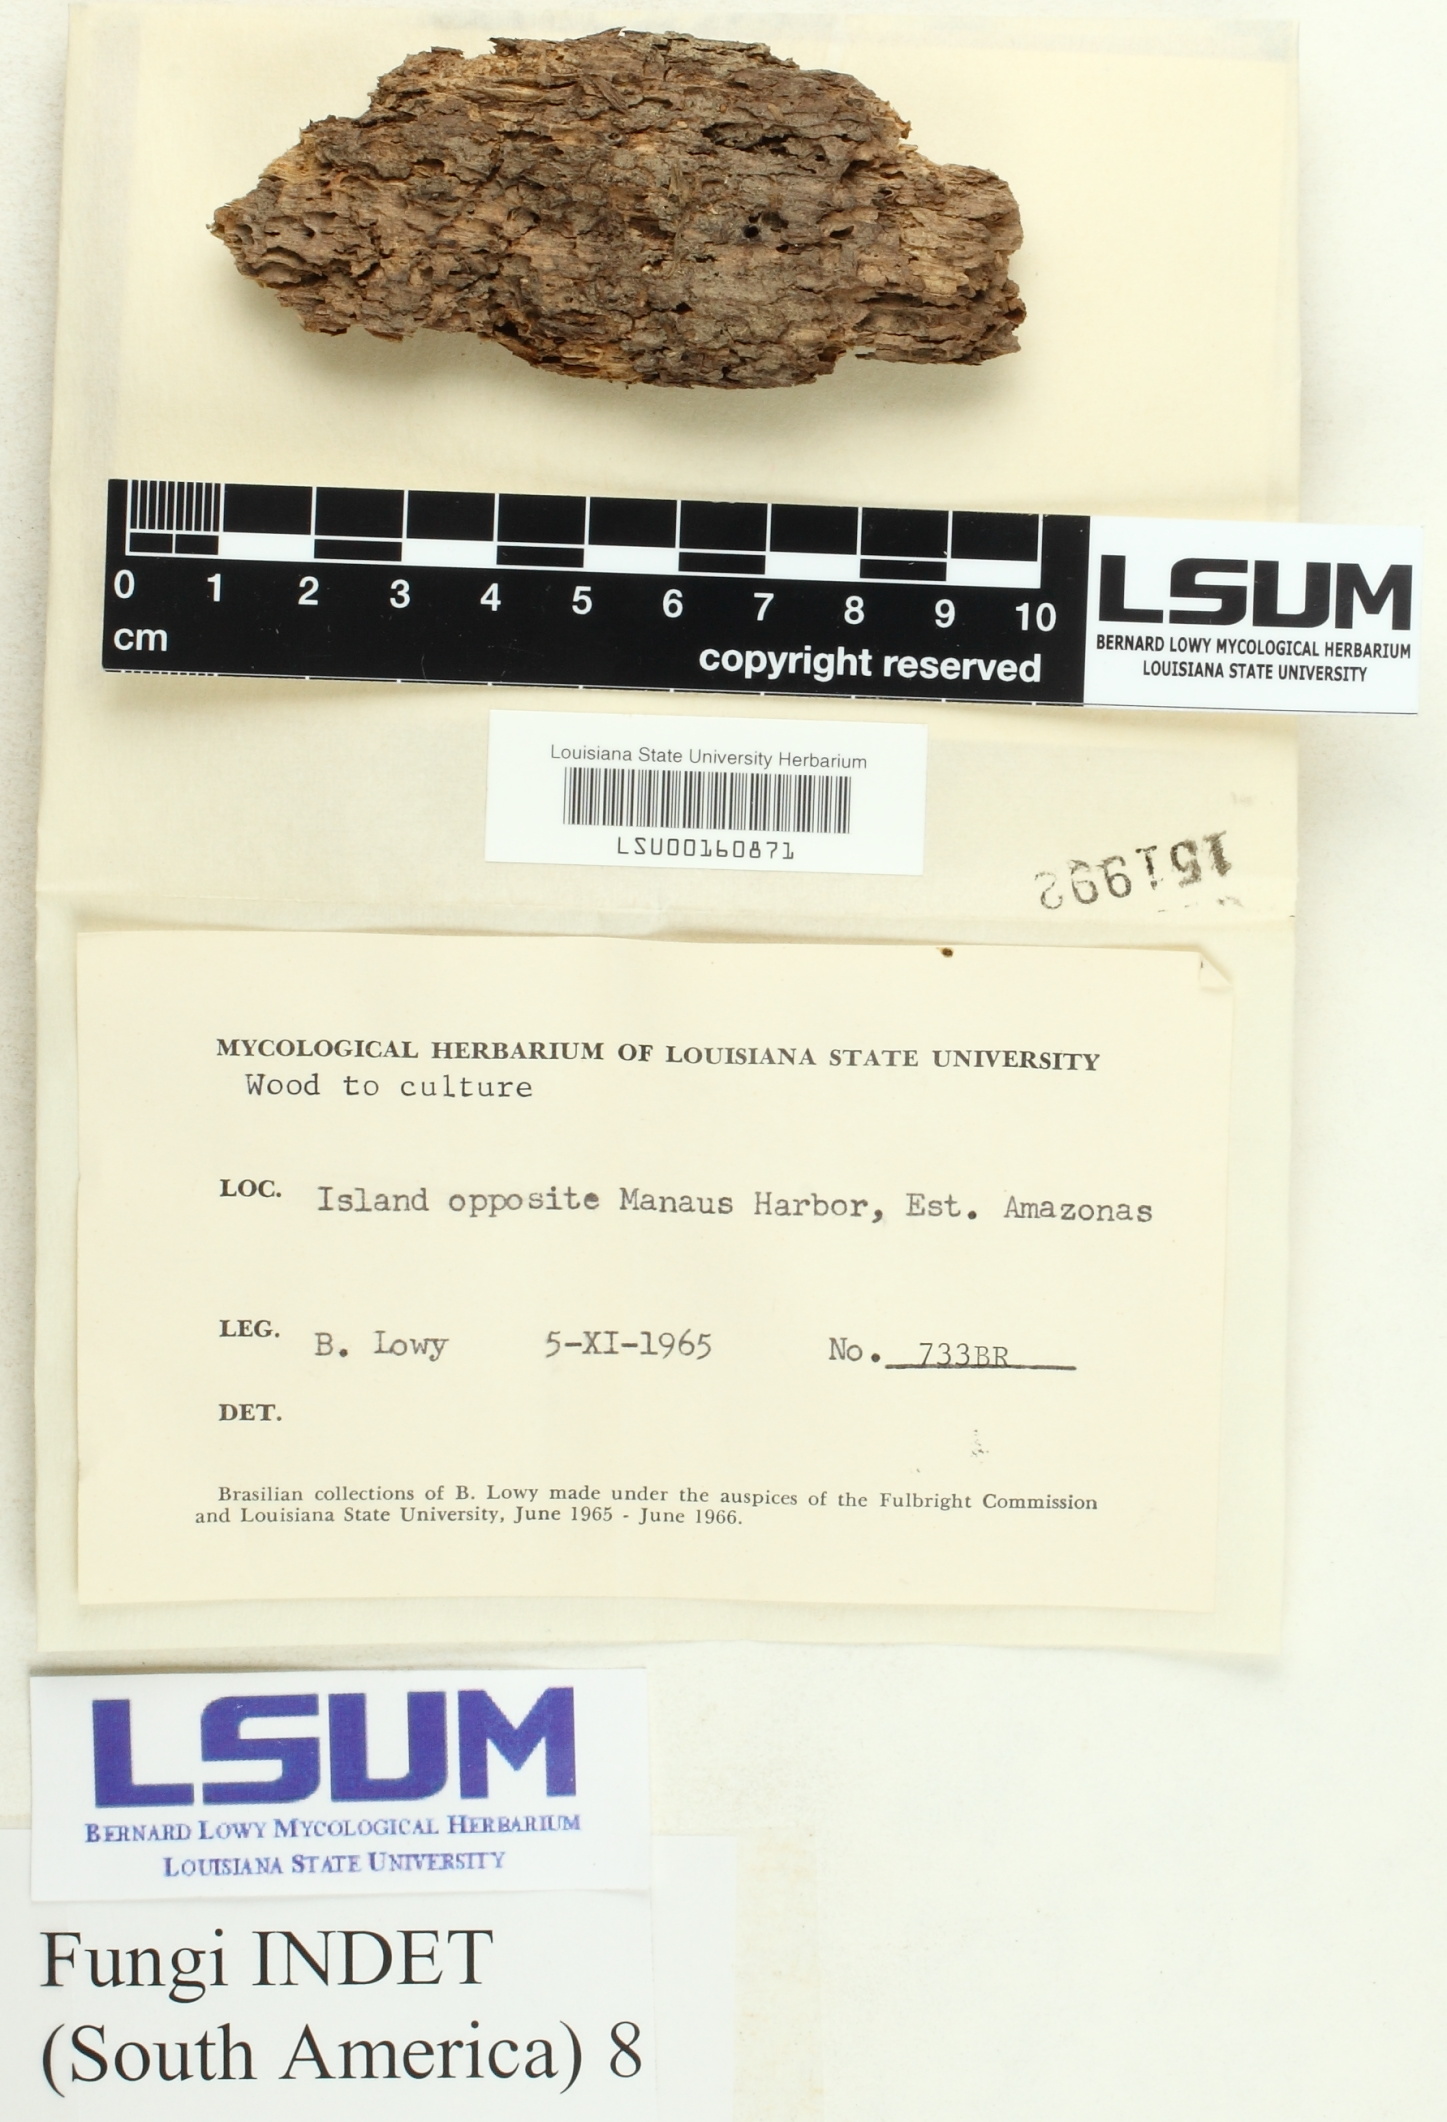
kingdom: Fungi
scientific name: Fungi
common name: Fungi
